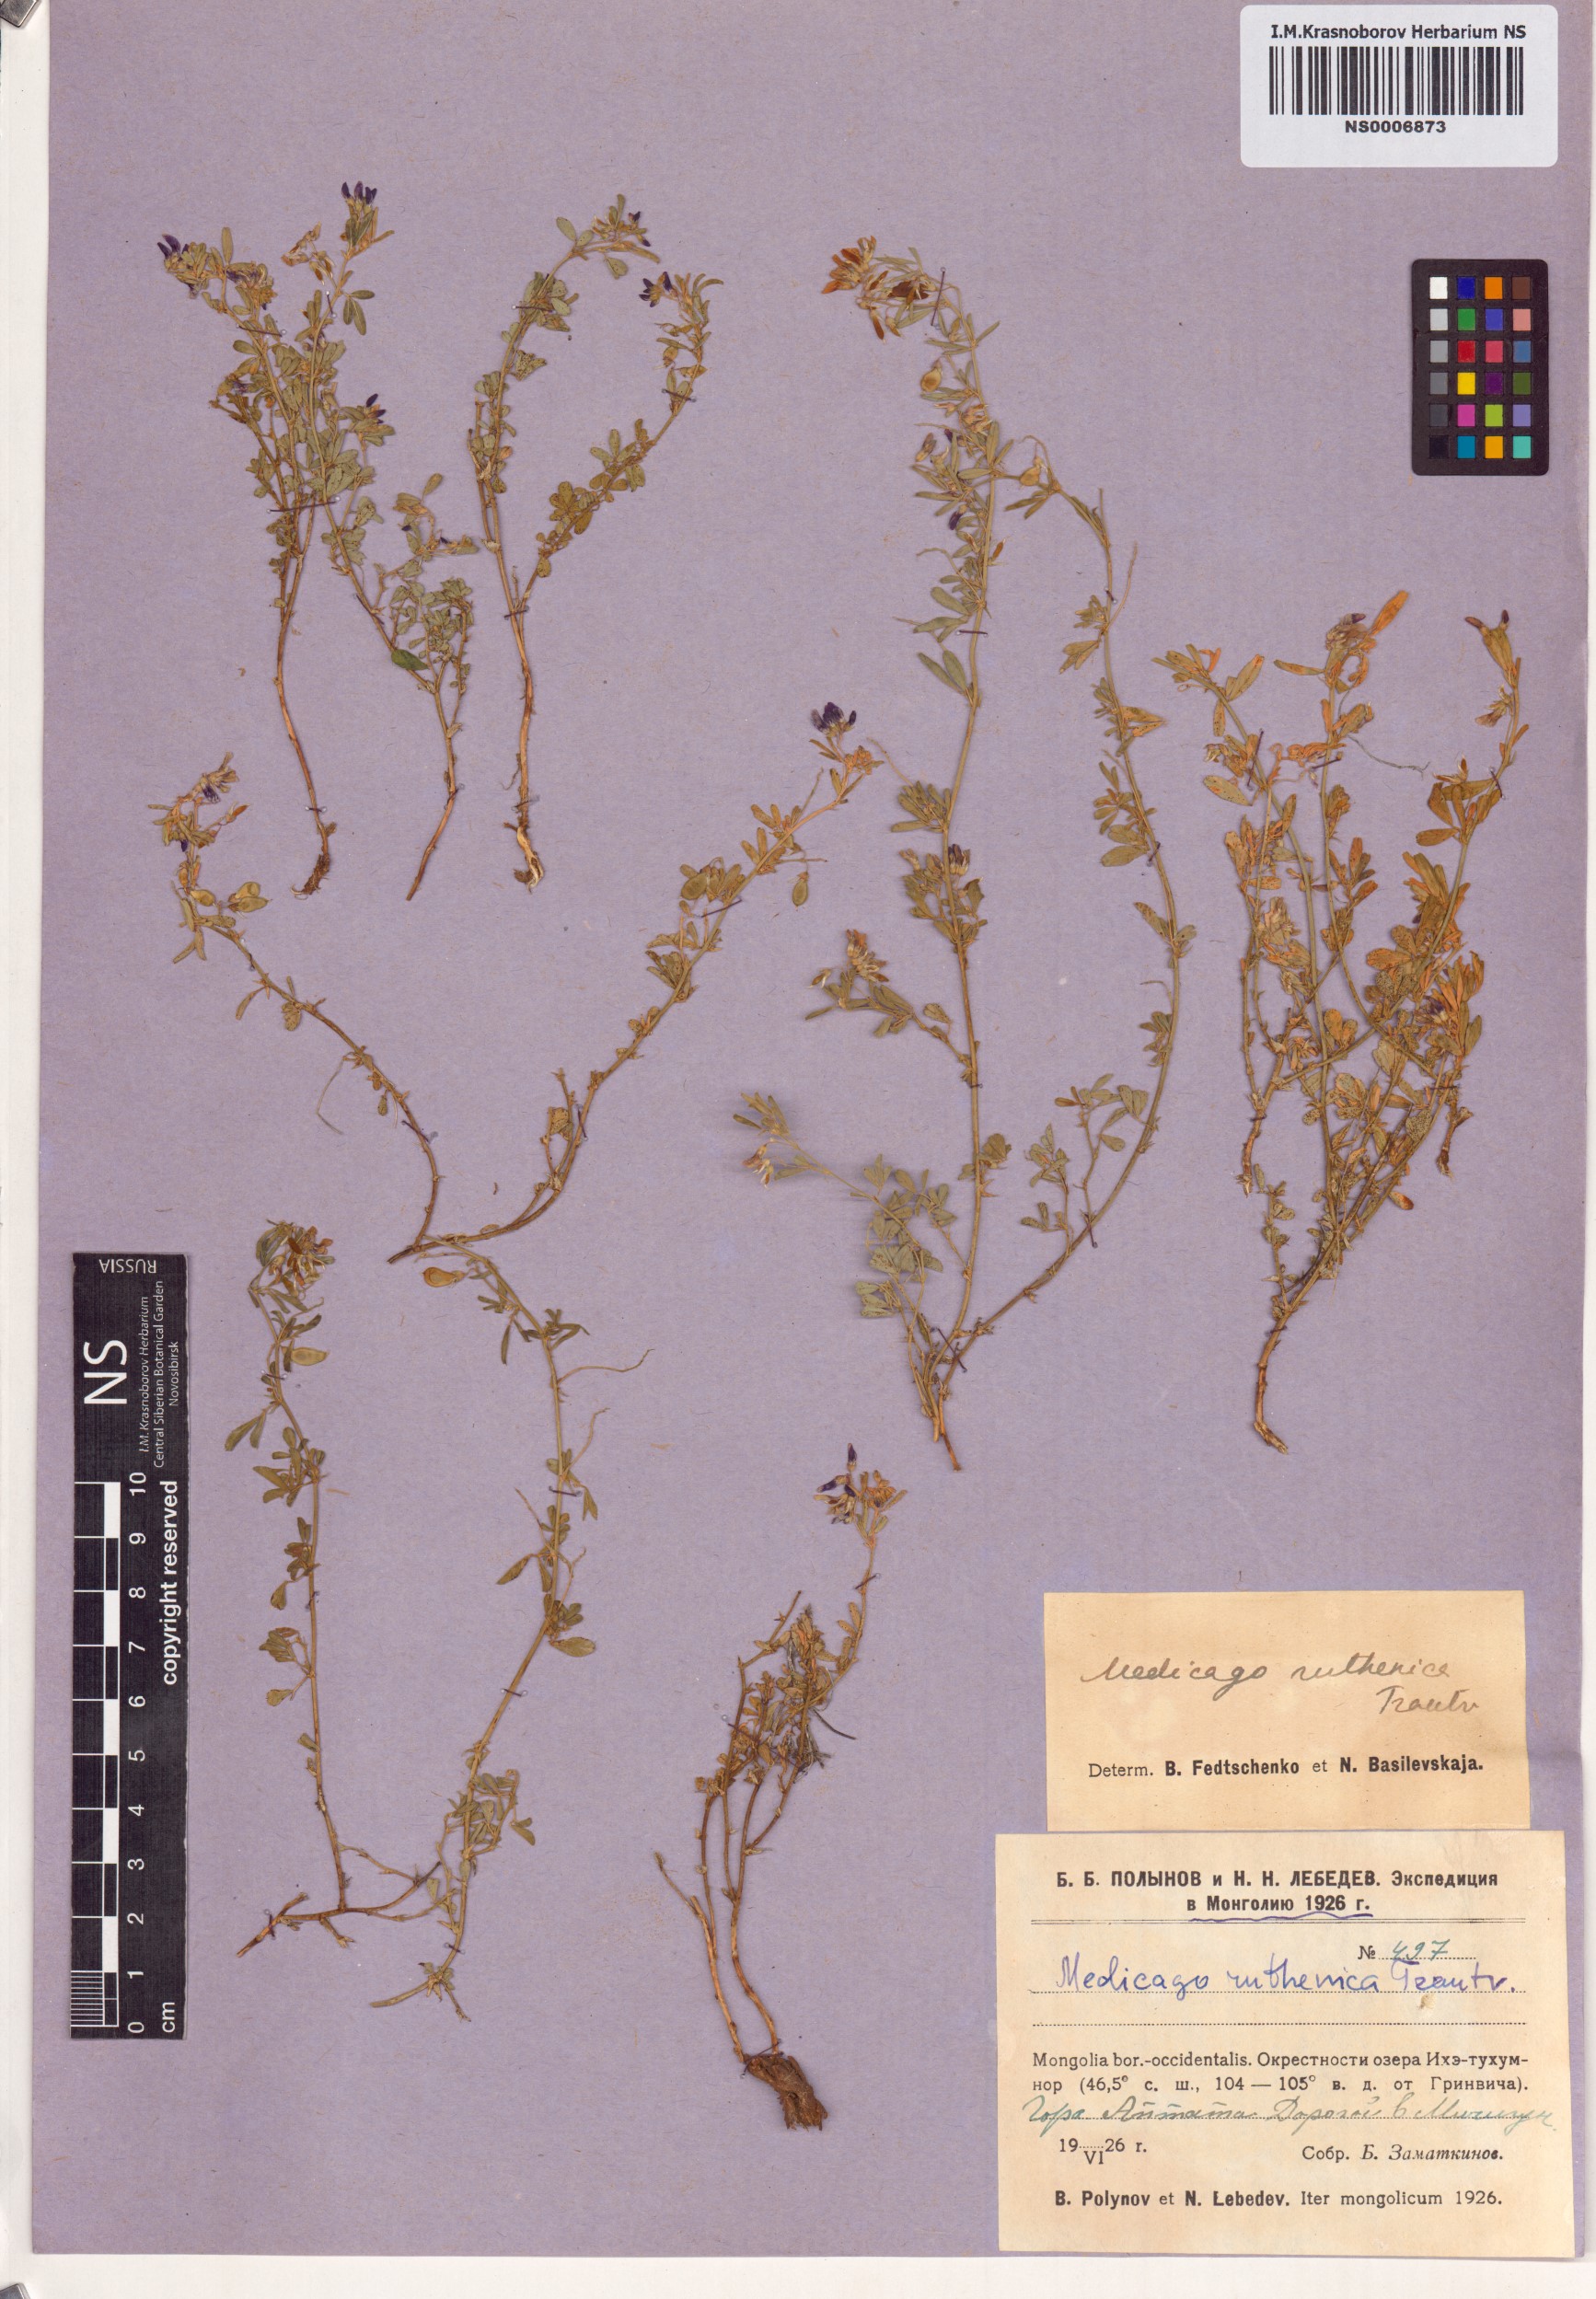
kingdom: Plantae
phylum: Tracheophyta
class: Magnoliopsida
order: Fabales
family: Fabaceae
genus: Medicago
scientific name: Medicago ruthenica
